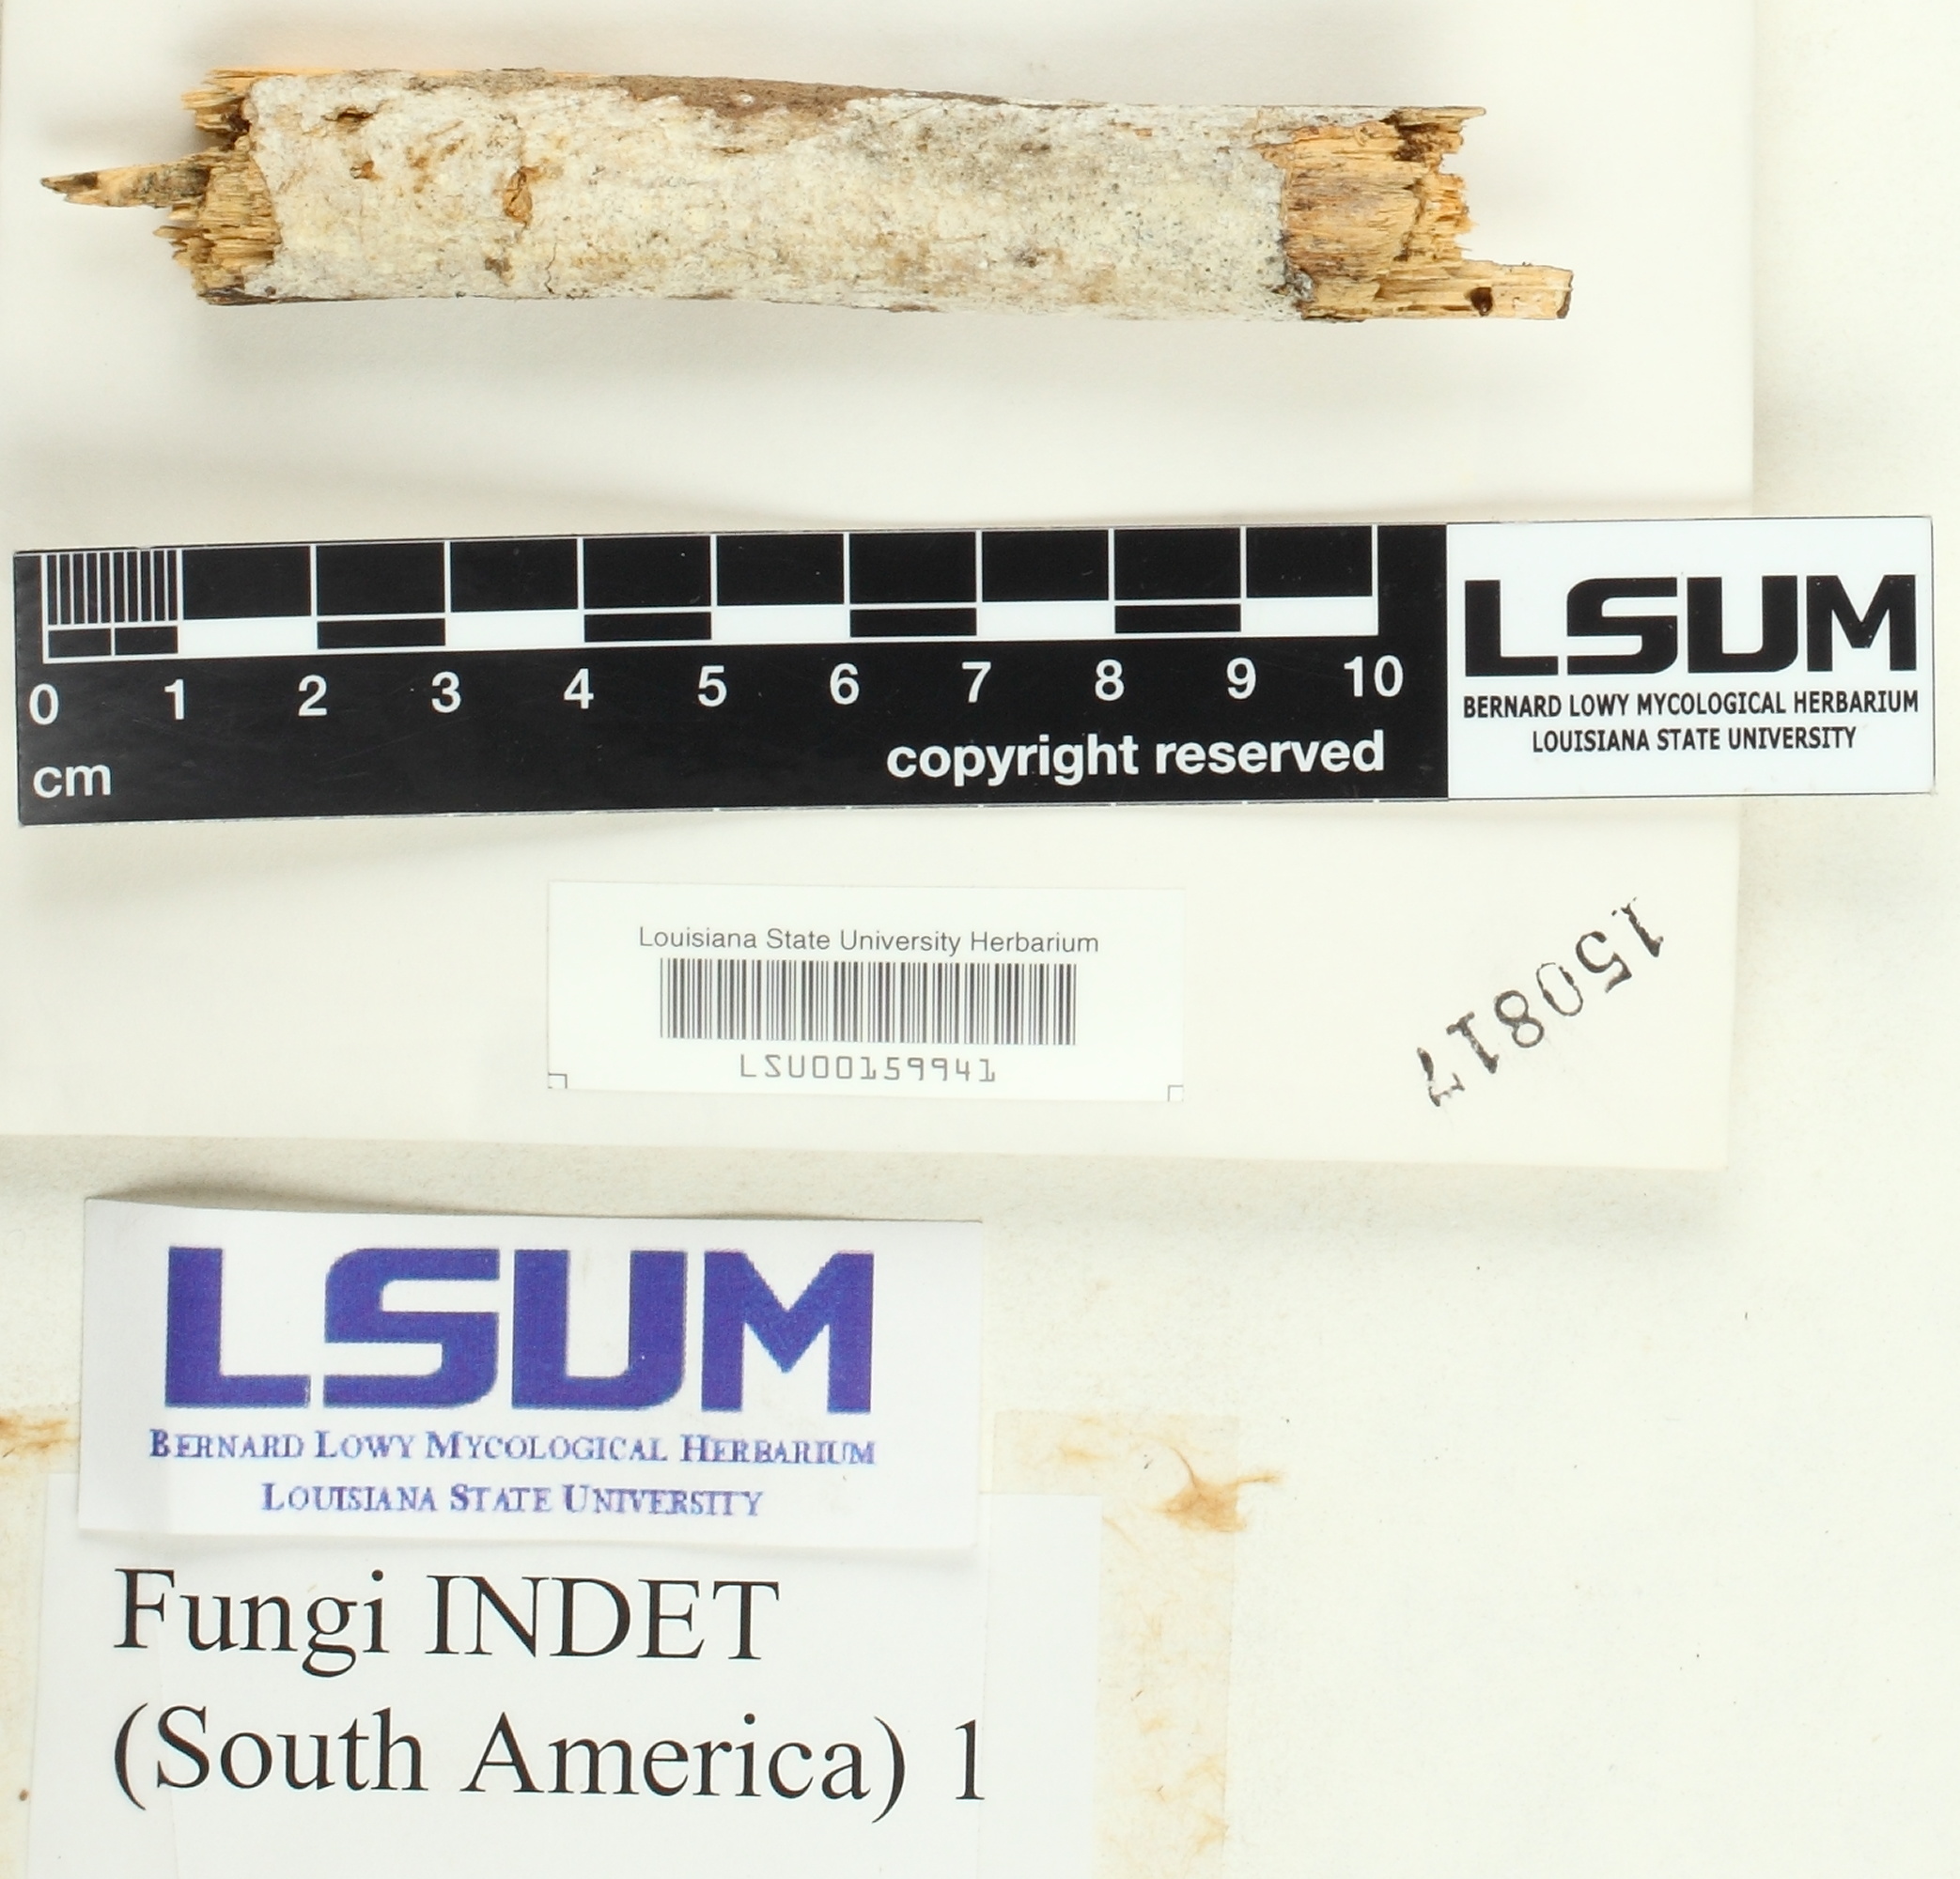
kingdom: Fungi
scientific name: Fungi
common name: Fungi
